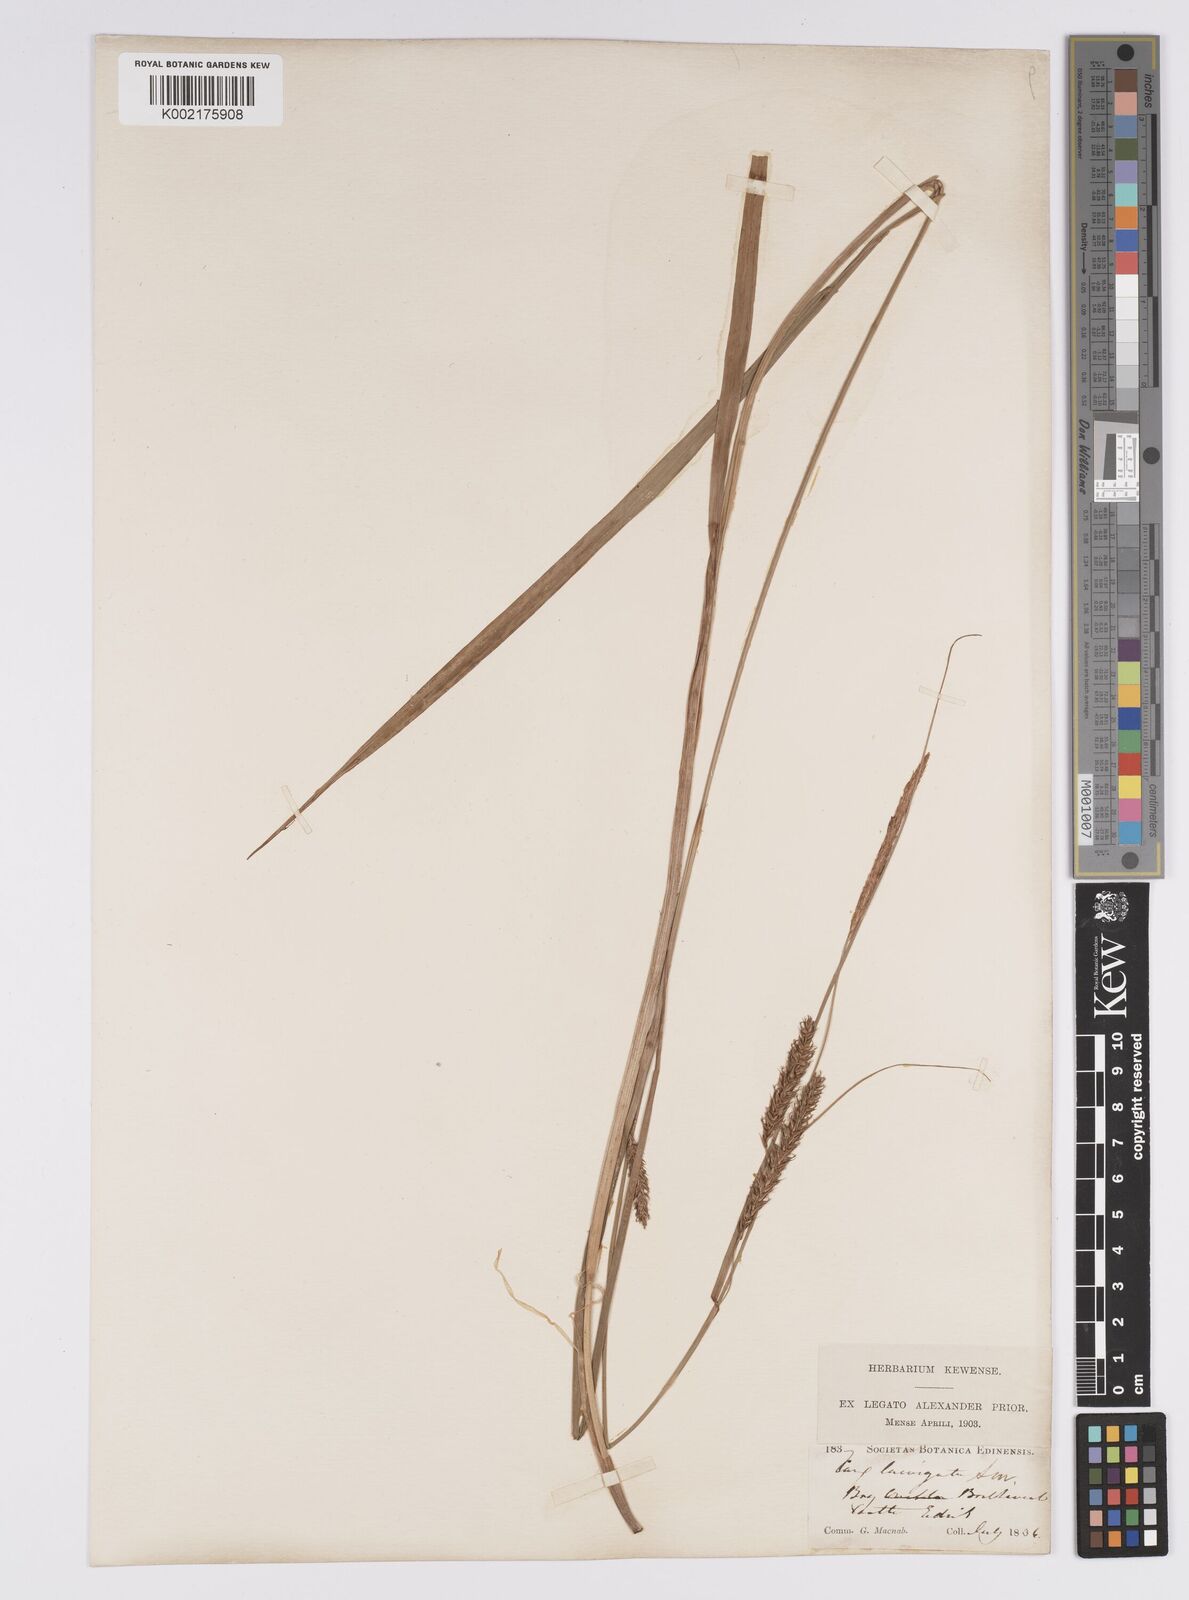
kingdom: Plantae
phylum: Tracheophyta
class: Liliopsida
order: Poales
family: Cyperaceae
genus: Carex
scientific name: Carex laevigata
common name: Smooth-stalked sedge
